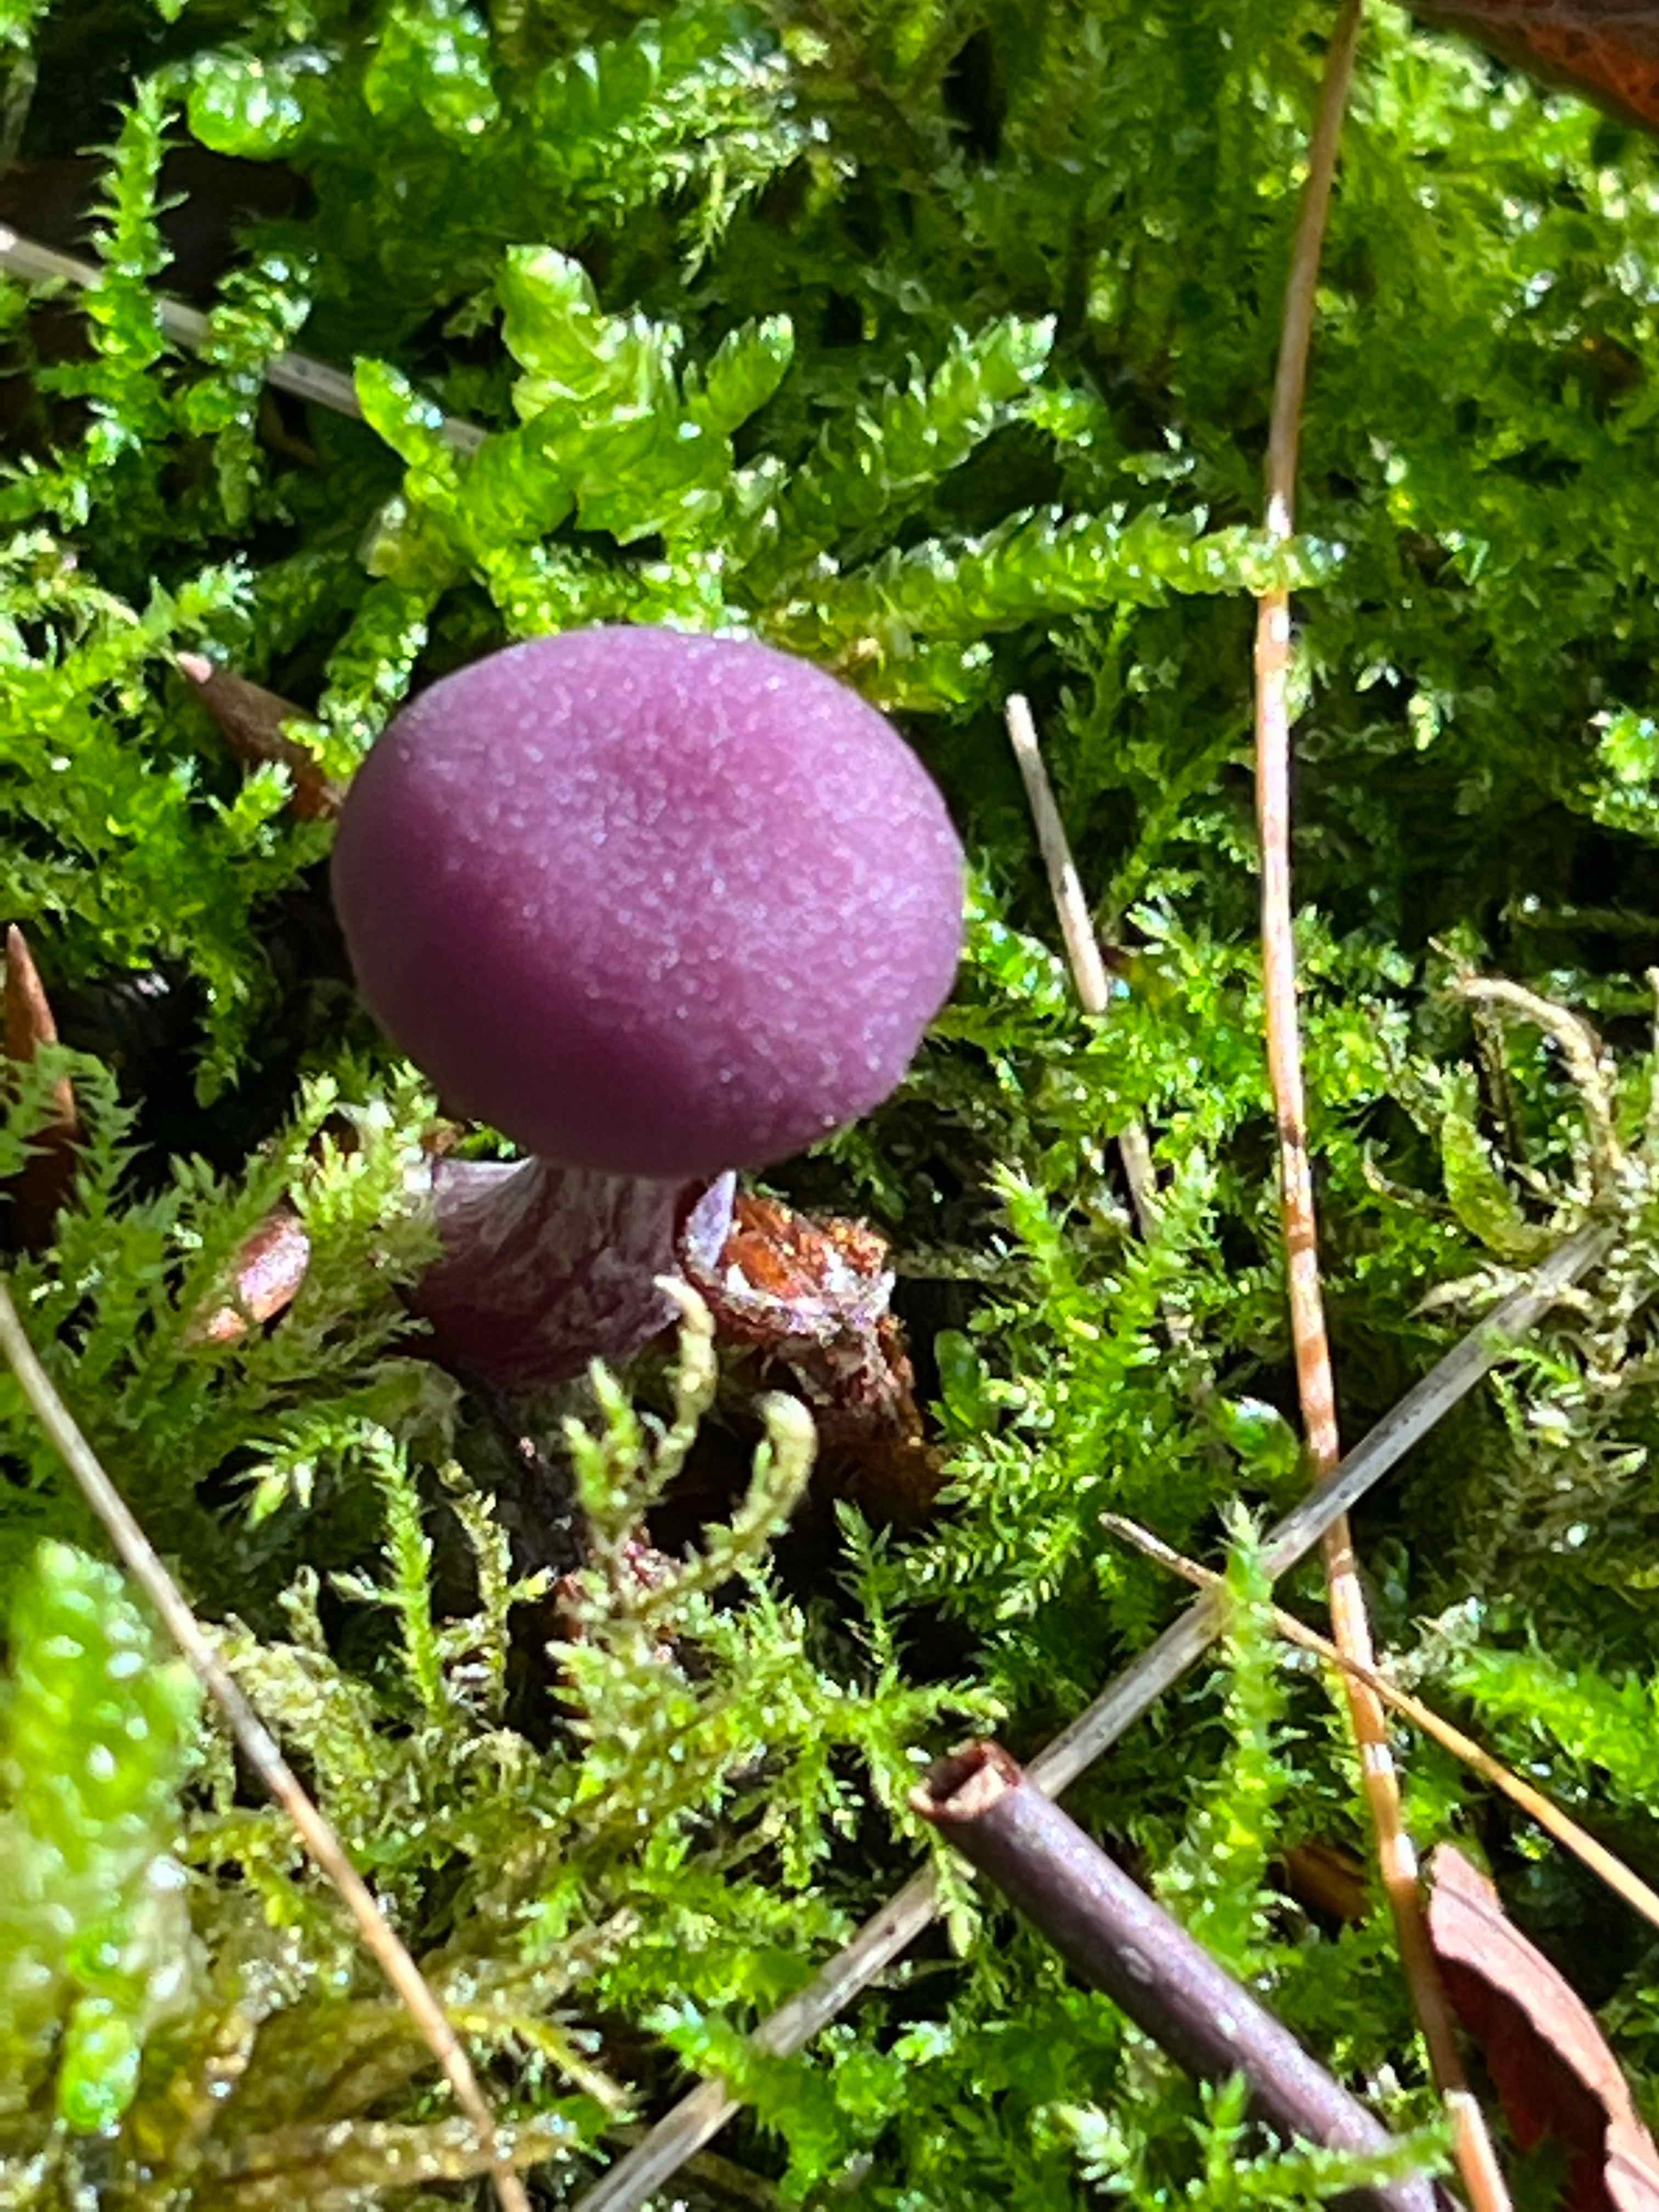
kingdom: Fungi
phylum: Basidiomycota
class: Agaricomycetes
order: Agaricales
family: Hydnangiaceae
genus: Laccaria
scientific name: Laccaria amethystina
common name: violet ametysthat
